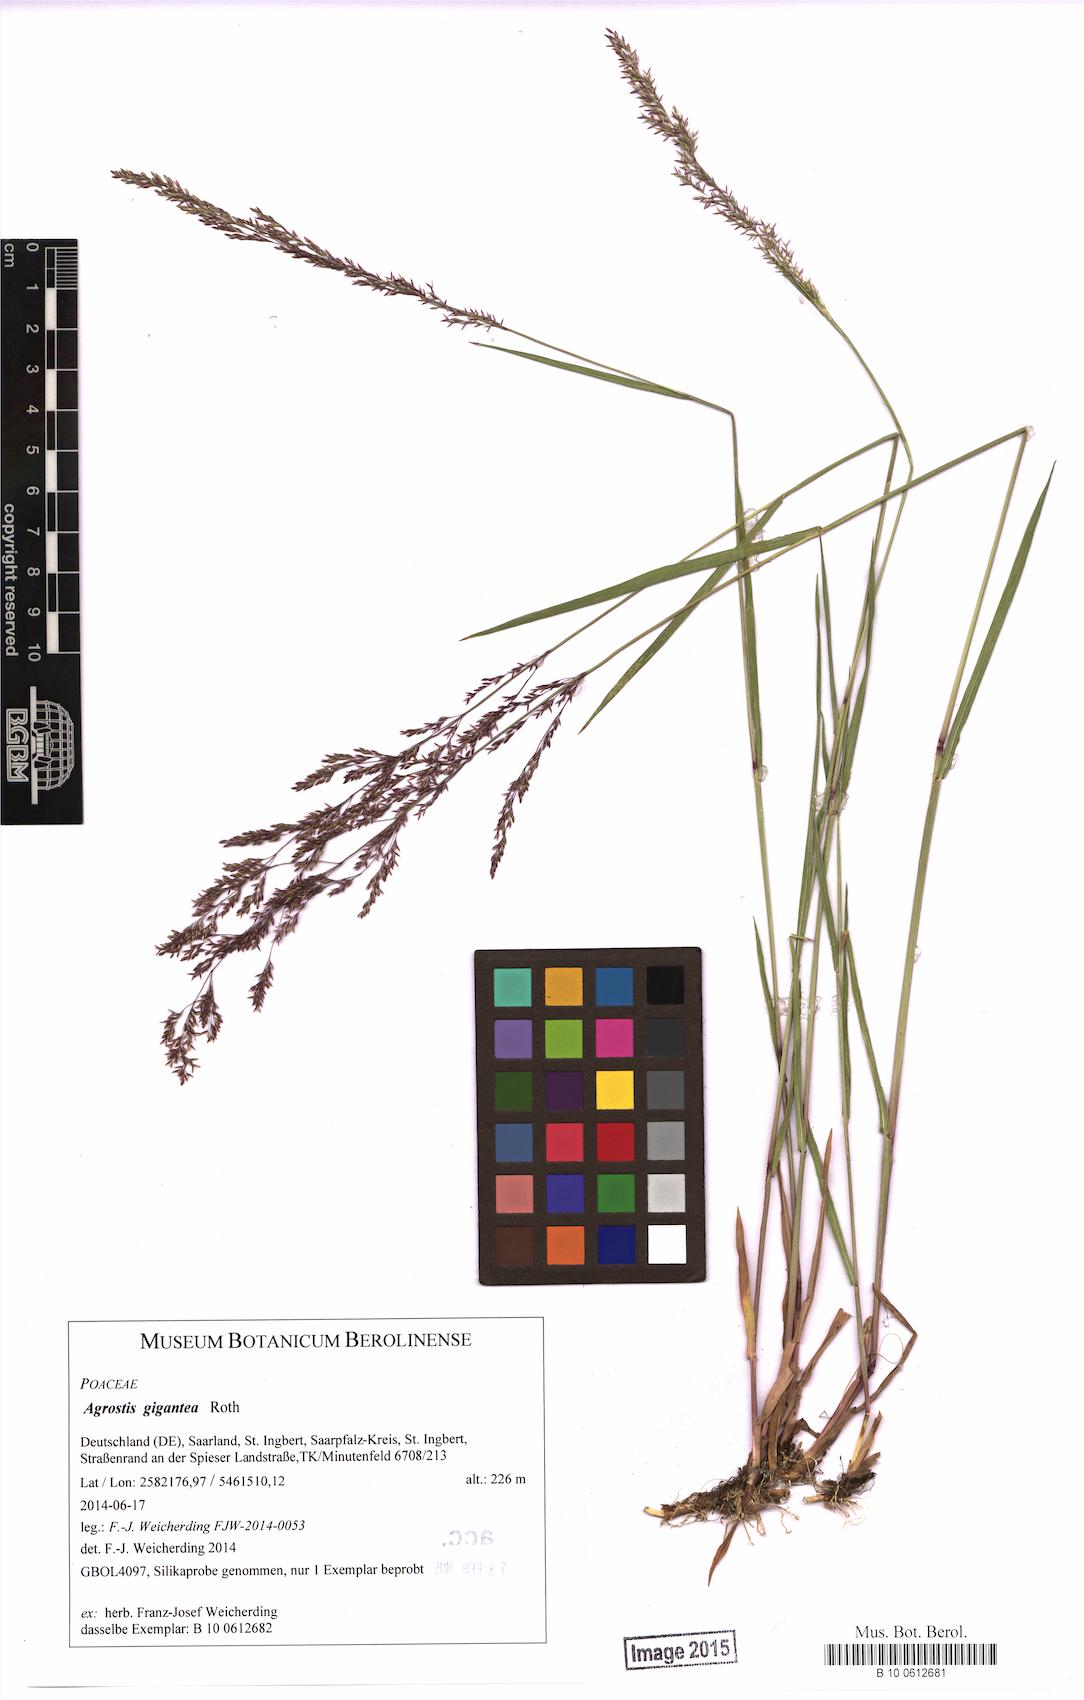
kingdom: Plantae
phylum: Tracheophyta
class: Liliopsida
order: Poales
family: Poaceae
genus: Agrostis
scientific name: Agrostis gigantea
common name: Black bent
